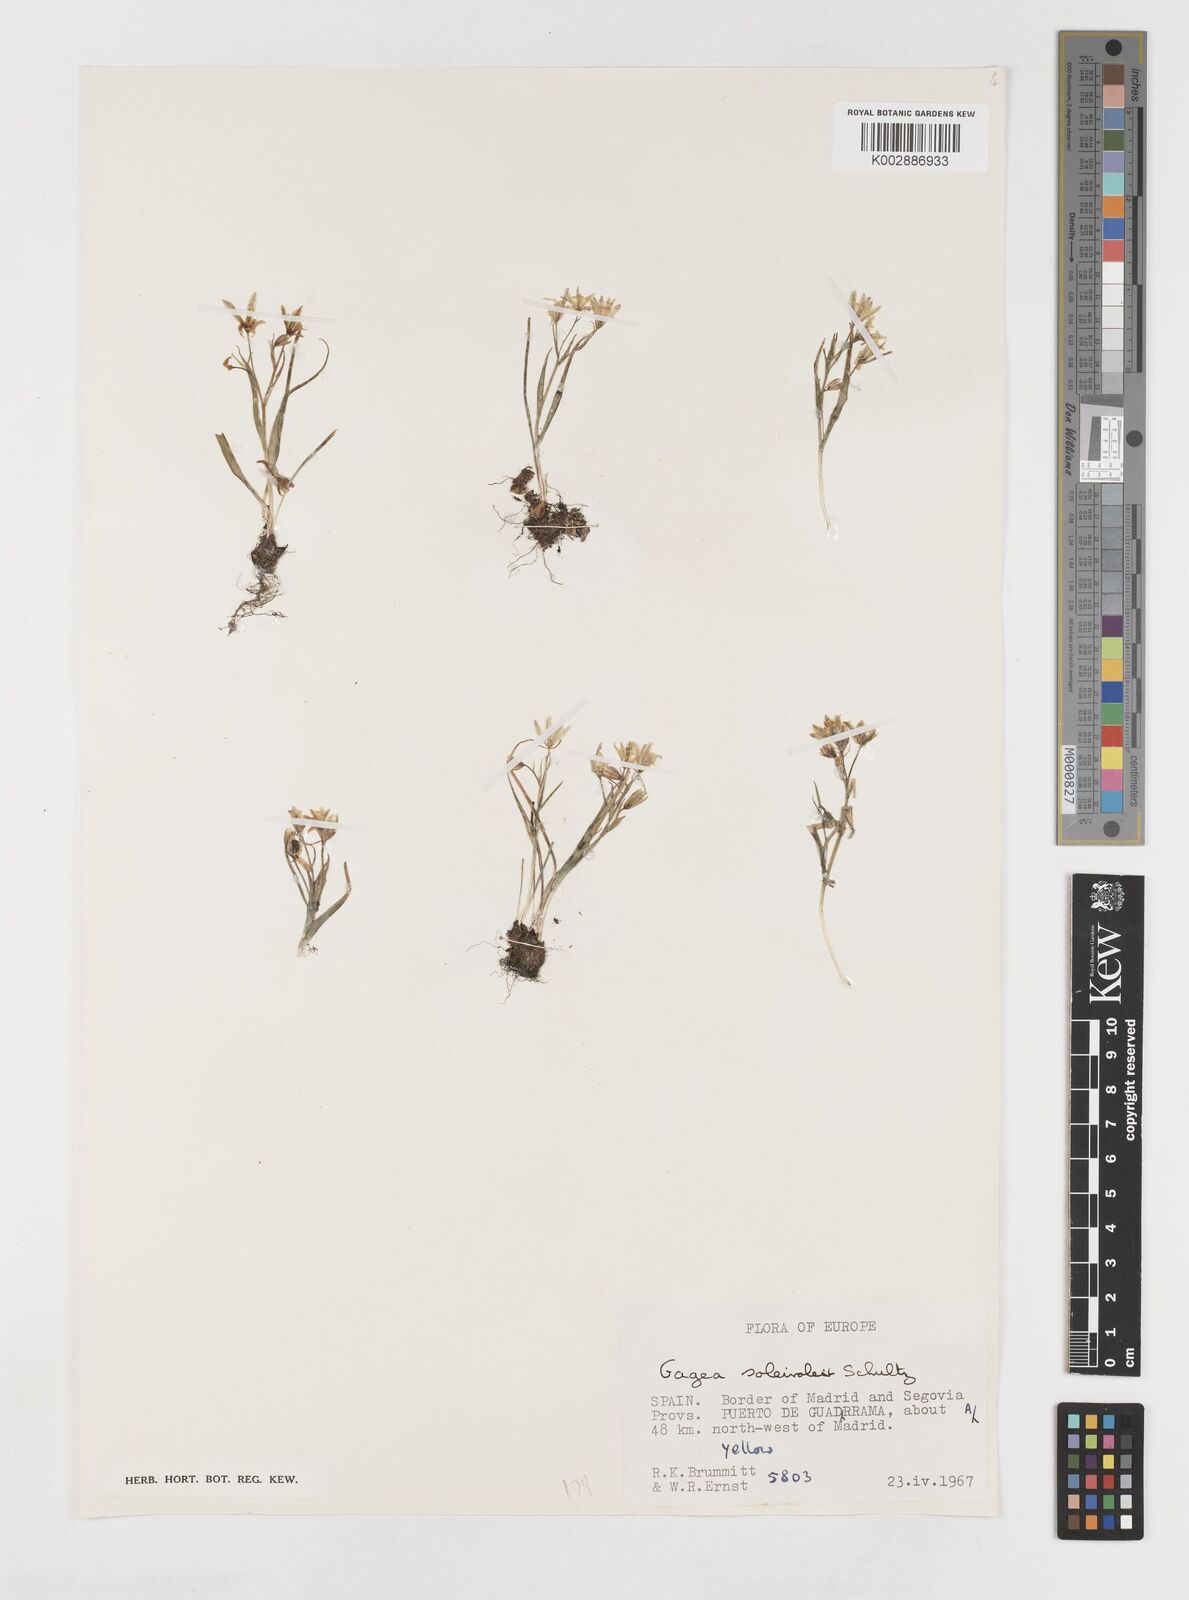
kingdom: Plantae
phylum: Tracheophyta
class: Liliopsida
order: Liliales
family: Liliaceae
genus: Gagea
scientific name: Gagea soleirolii
